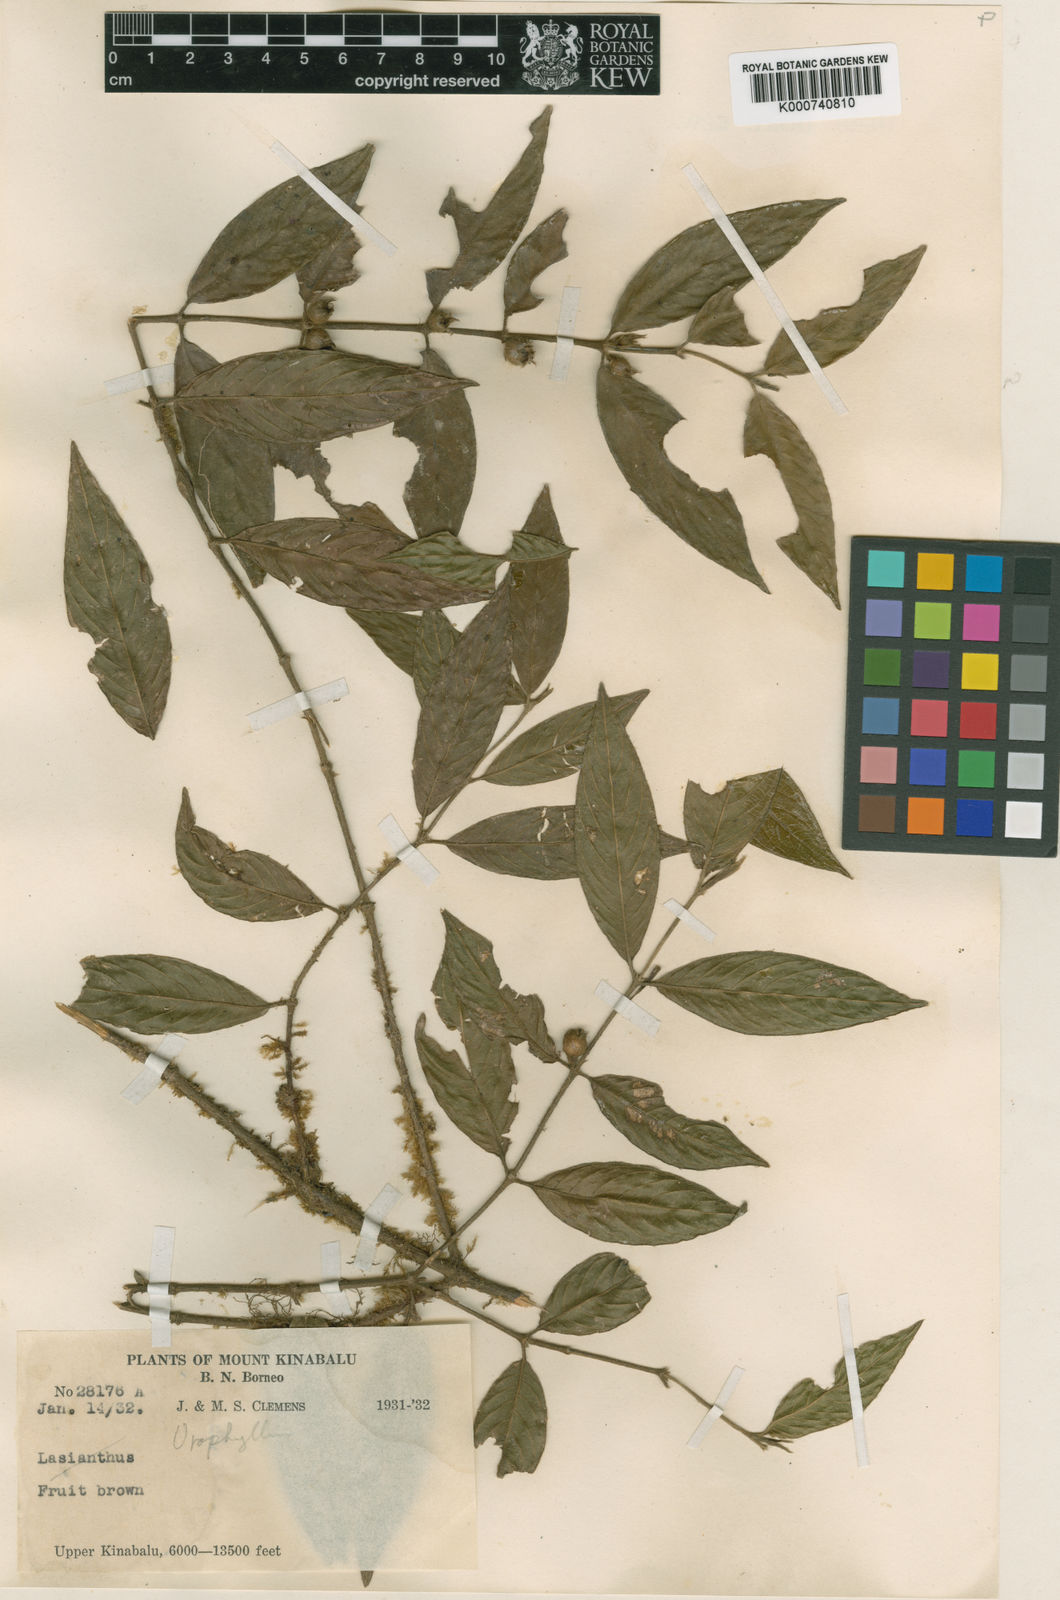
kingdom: Plantae
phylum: Tracheophyta
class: Magnoliopsida
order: Gentianales
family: Rubiaceae
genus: Urophyllum
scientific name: Urophyllum leucocarpum
